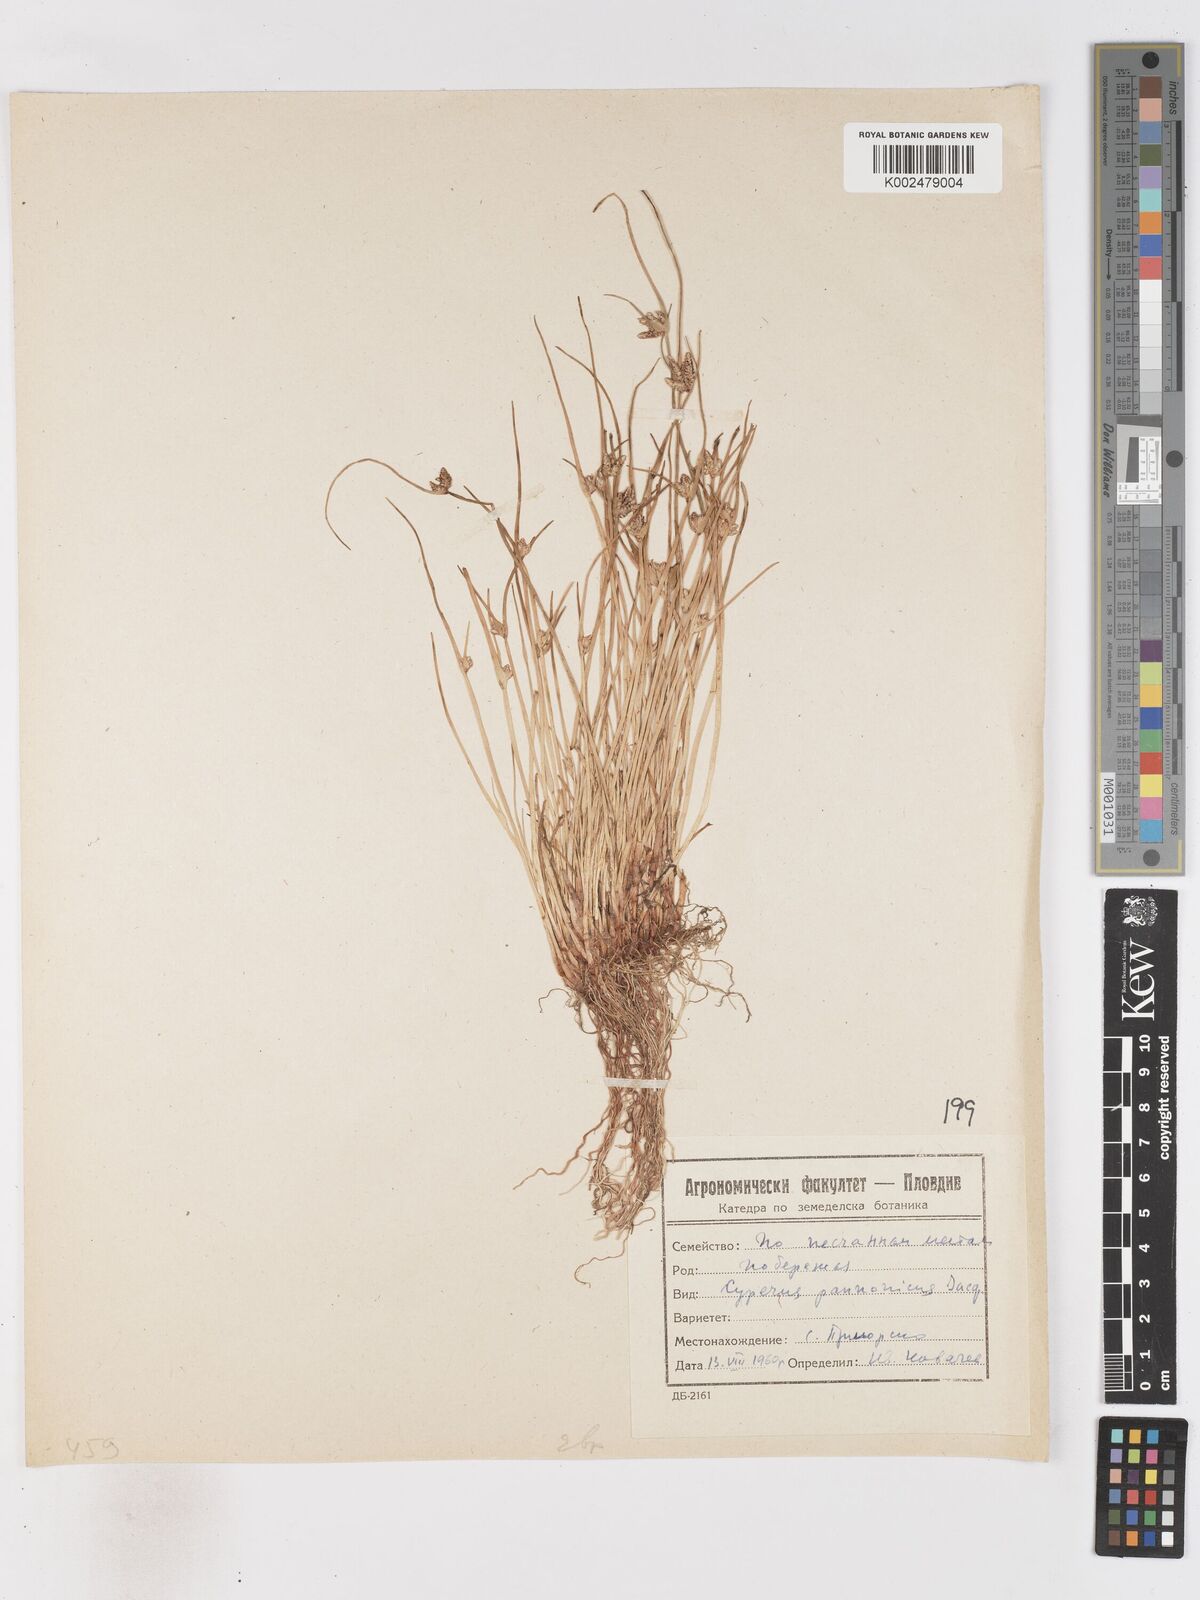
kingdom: Plantae
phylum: Tracheophyta
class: Liliopsida
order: Poales
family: Cyperaceae
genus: Cyperus
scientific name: Cyperus pannonicus
